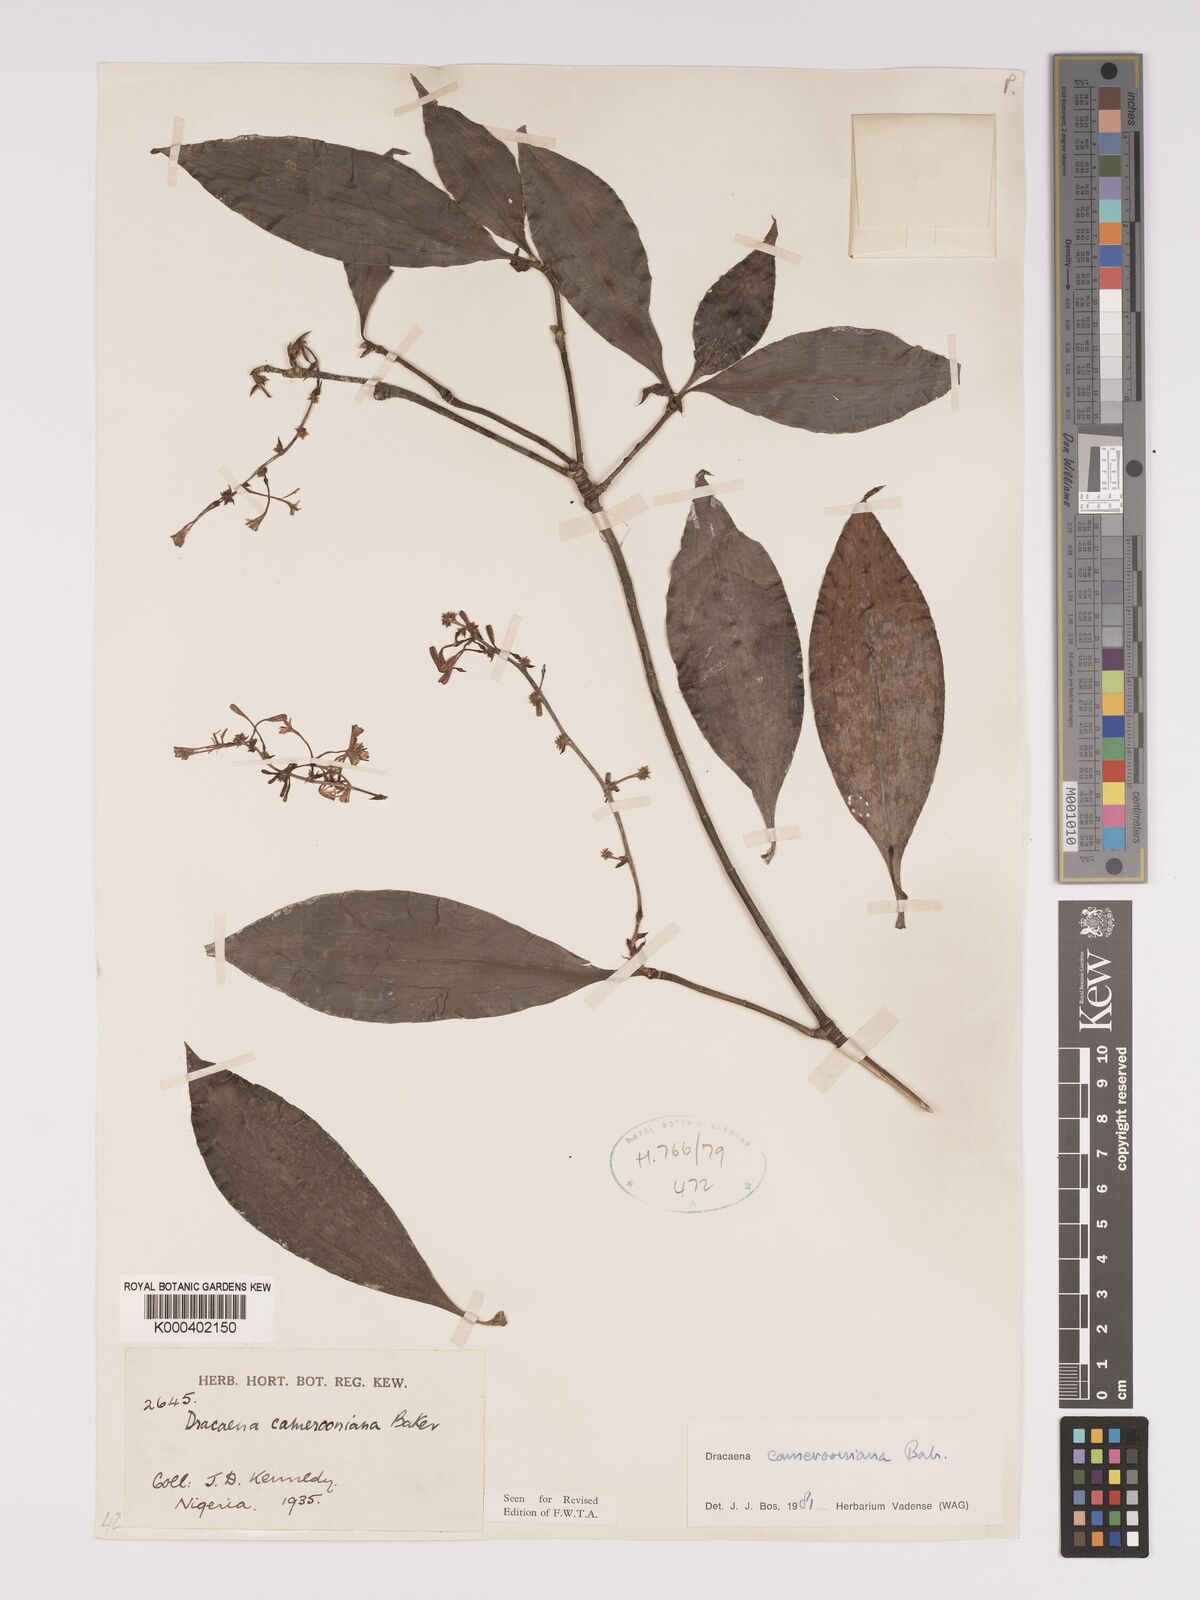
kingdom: Plantae
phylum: Tracheophyta
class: Liliopsida
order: Asparagales
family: Asparagaceae
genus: Dracaena
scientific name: Dracaena camerooniana
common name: Dragon tree
